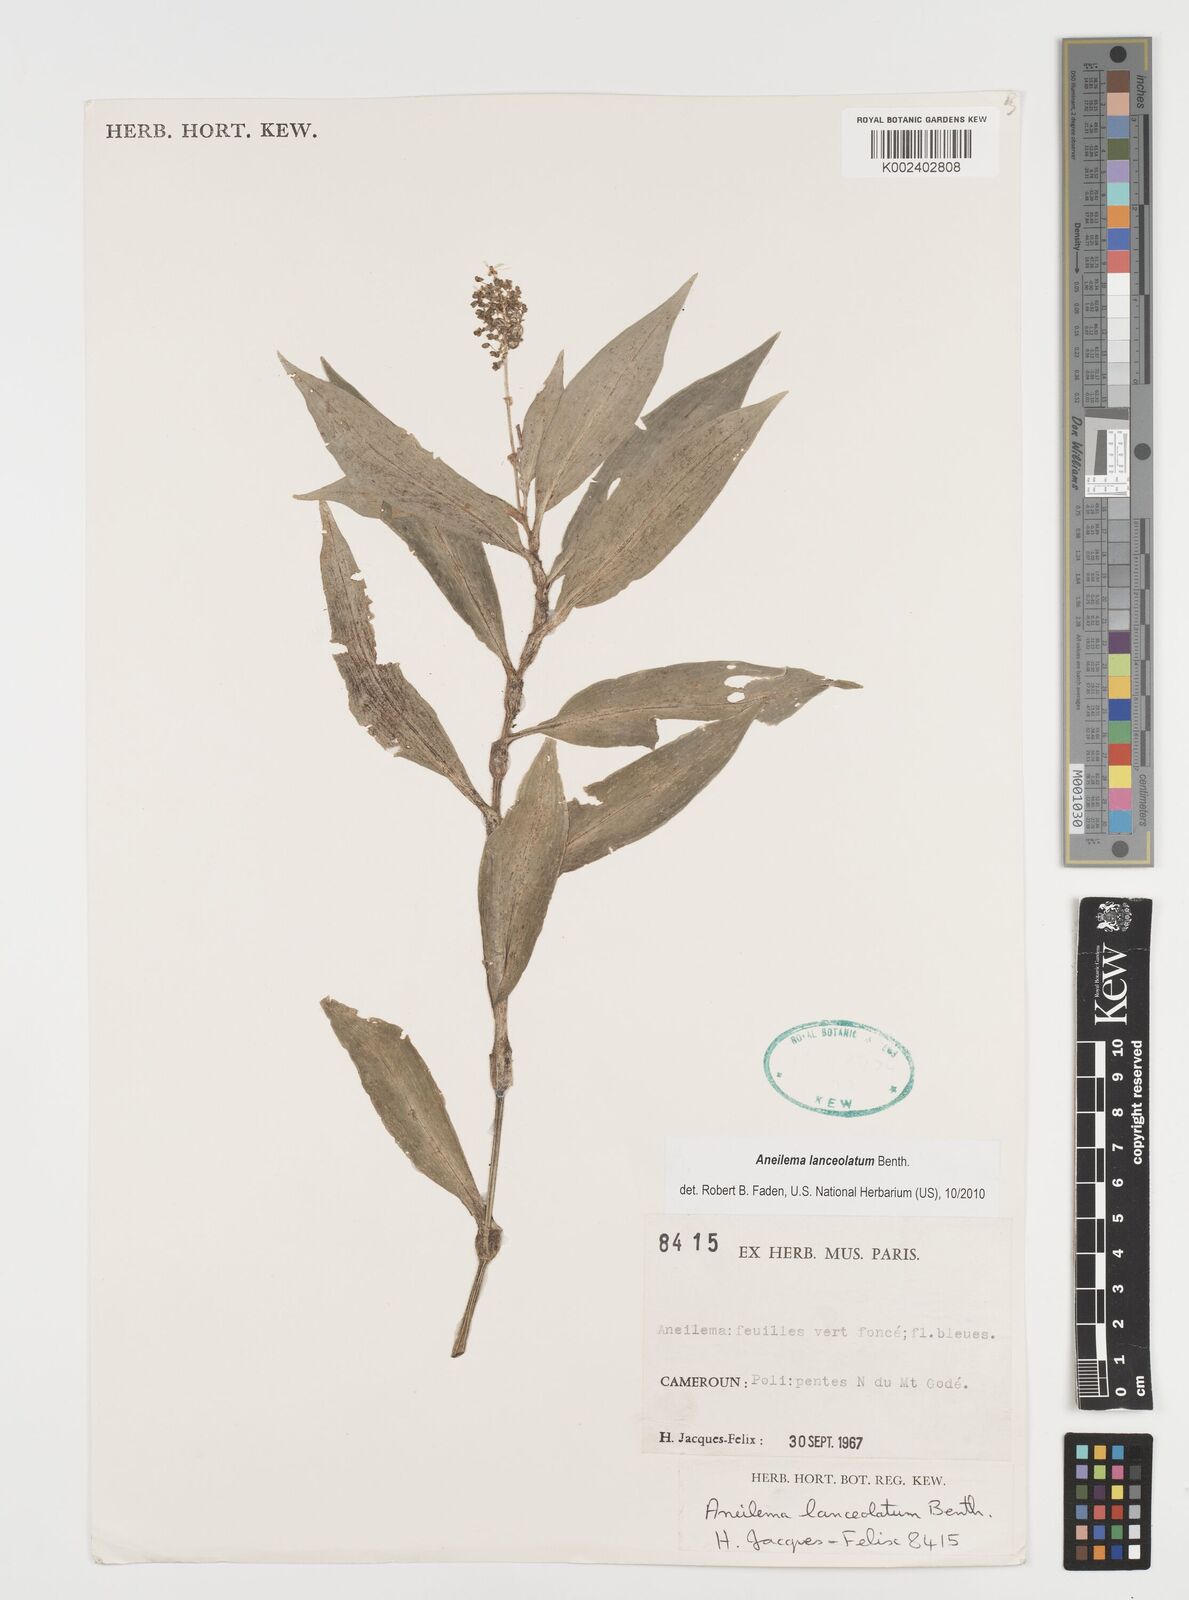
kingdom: Plantae
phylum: Tracheophyta
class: Liliopsida
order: Commelinales
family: Commelinaceae
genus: Aneilema
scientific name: Aneilema lanceolatum
